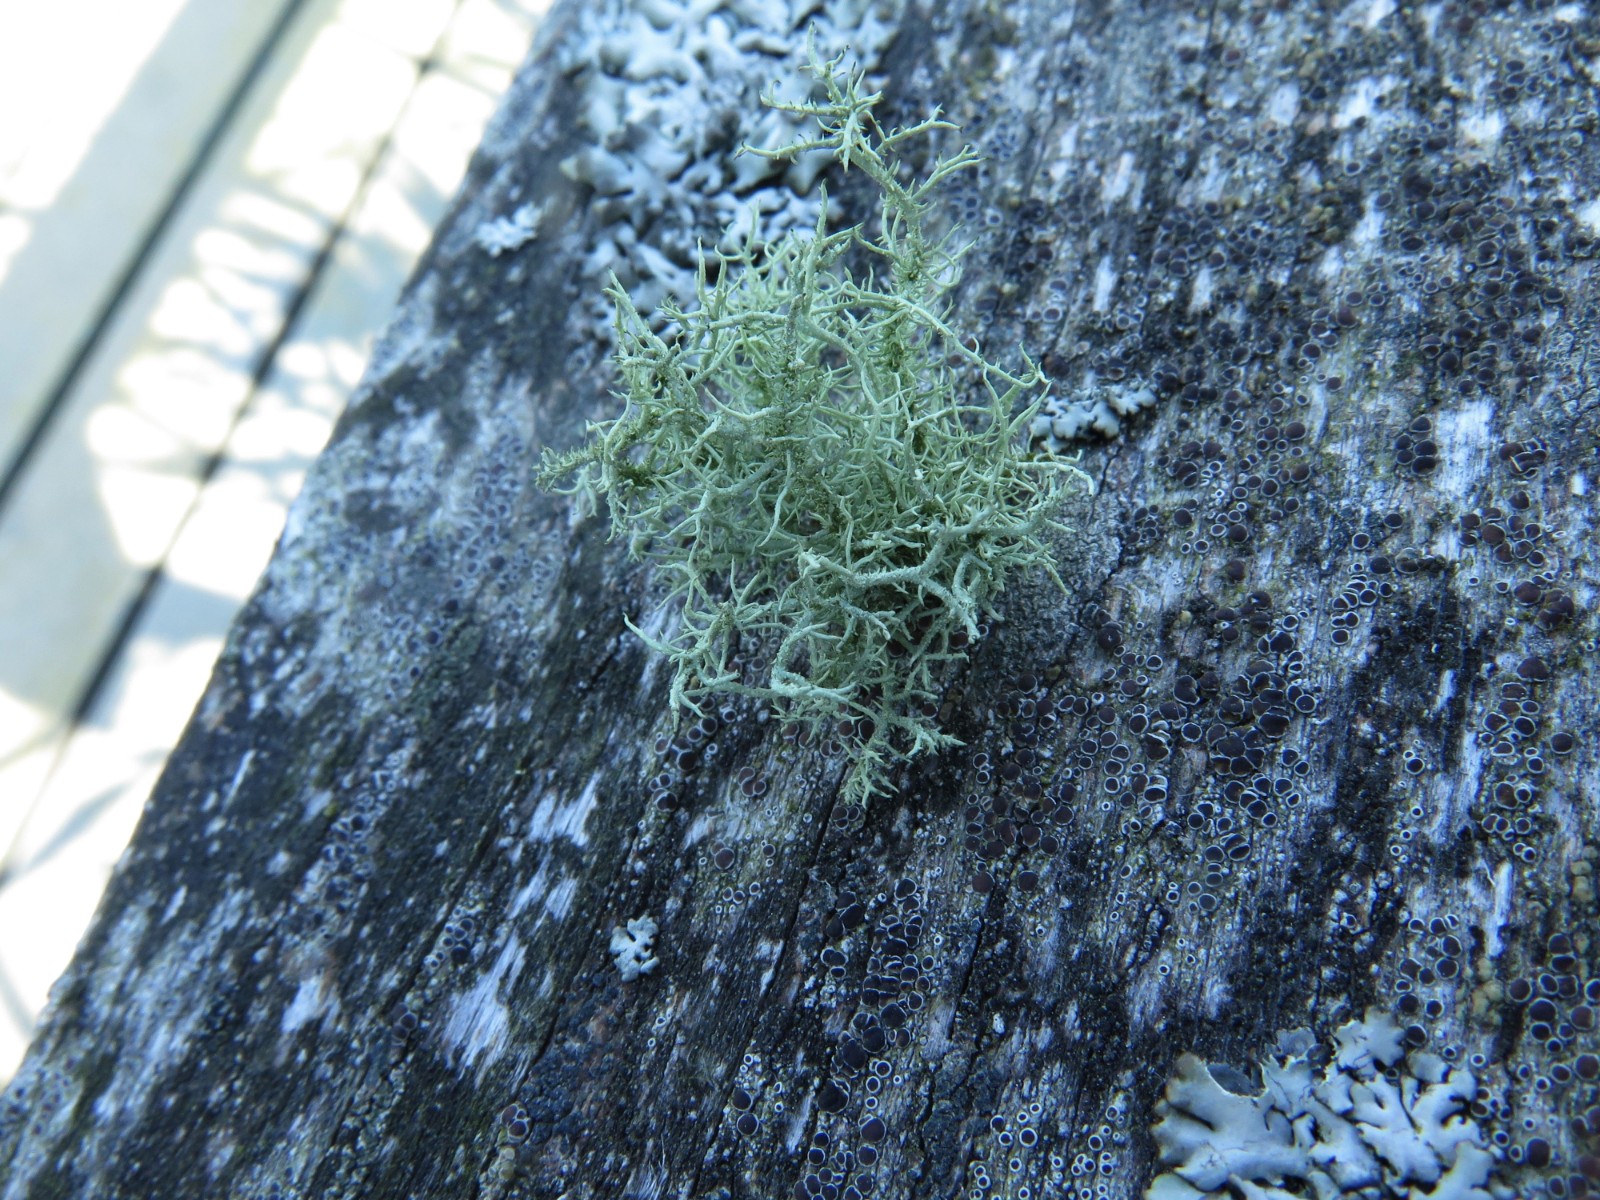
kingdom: Fungi
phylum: Ascomycota
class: Lecanoromycetes
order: Lecanorales
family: Parmeliaceae
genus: Usnea
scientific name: Usnea subfloridana
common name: busket skæglav
